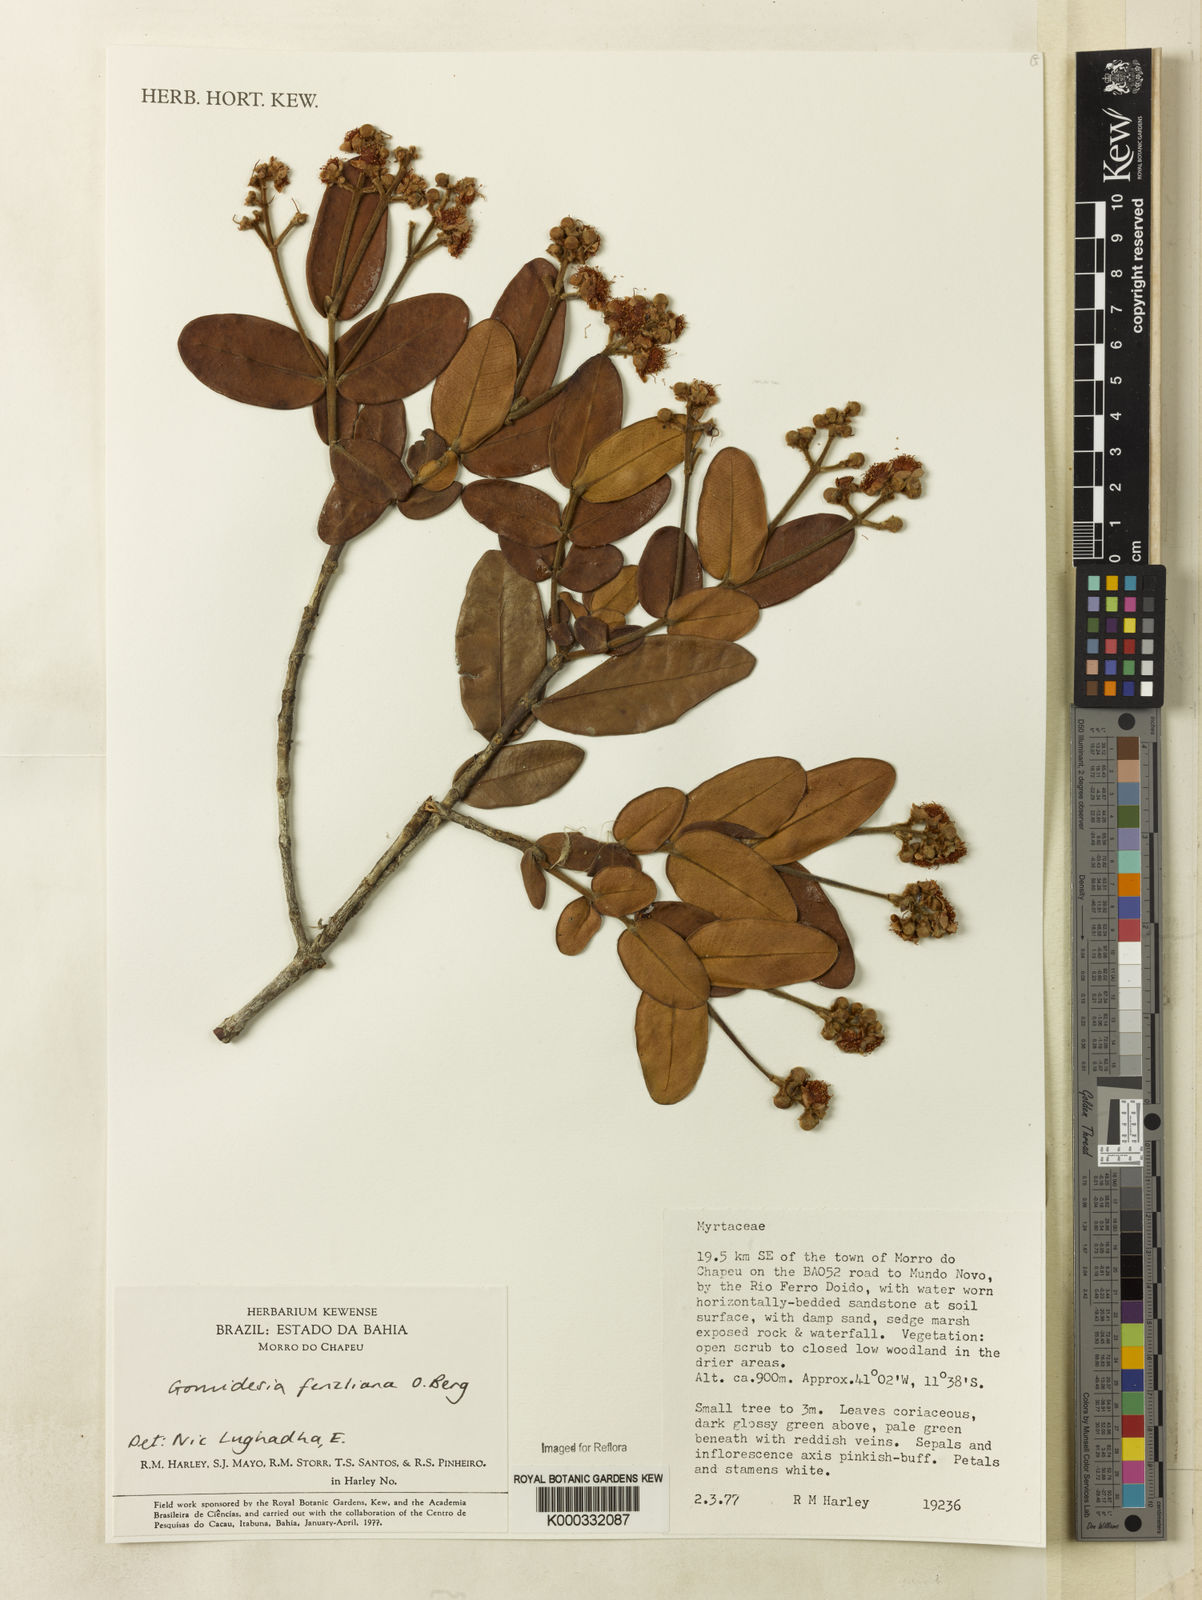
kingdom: Plantae
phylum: Tracheophyta
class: Magnoliopsida
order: Myrtales
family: Myrtaceae
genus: Myrcia
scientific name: Myrcia ilheosensis
